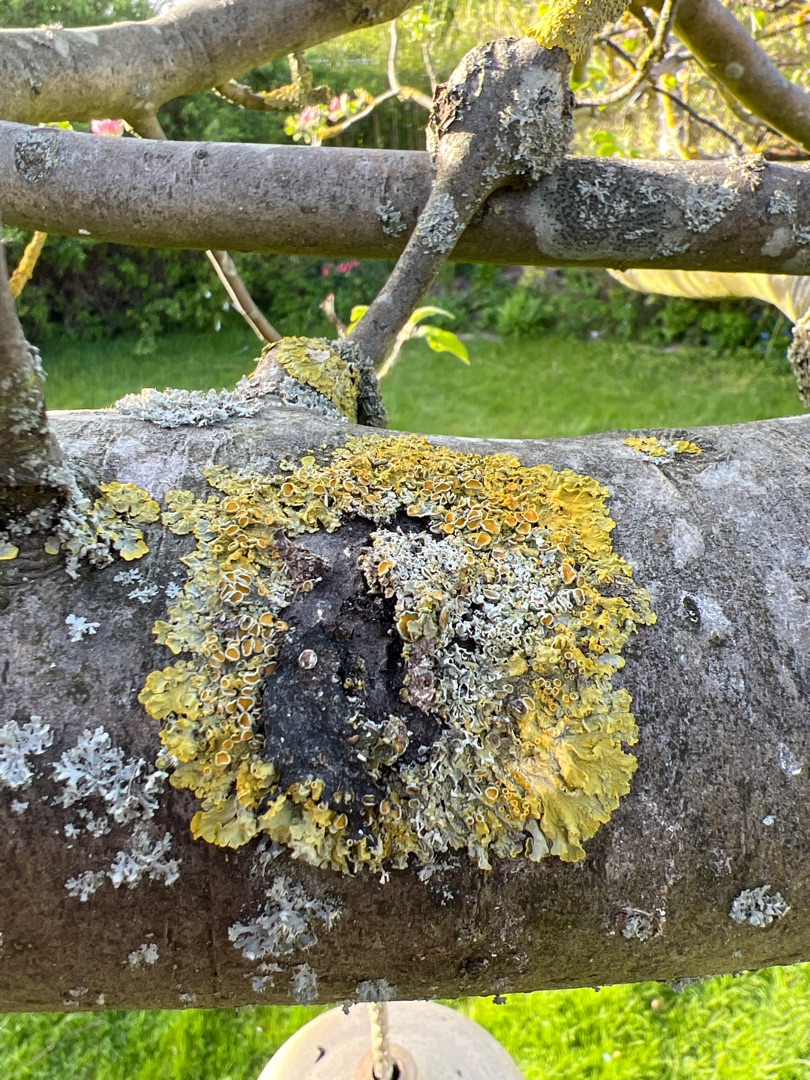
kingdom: Fungi
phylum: Ascomycota
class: Lecanoromycetes
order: Teloschistales
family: Teloschistaceae
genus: Xanthoria
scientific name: Xanthoria parietina
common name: Almindelig væggelav
